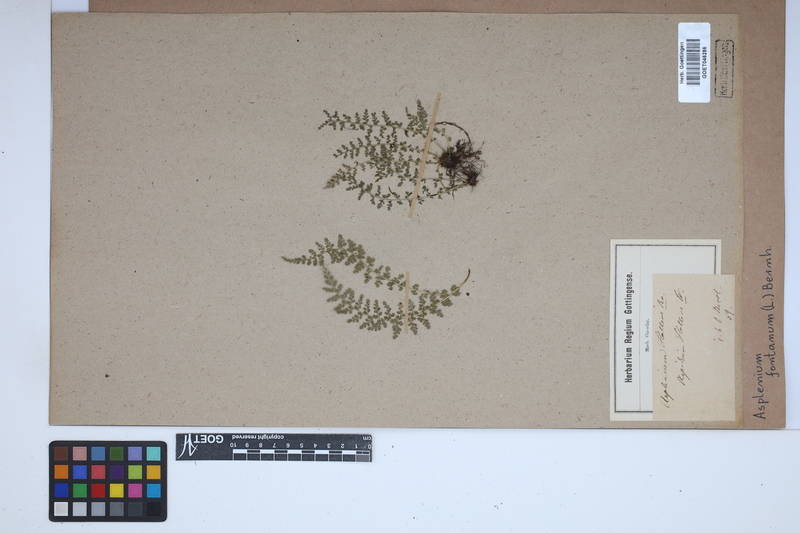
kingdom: Plantae
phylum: Tracheophyta
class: Polypodiopsida
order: Polypodiales
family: Aspleniaceae
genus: Asplenium
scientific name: Asplenium fontanum
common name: Fountain spleenwort
